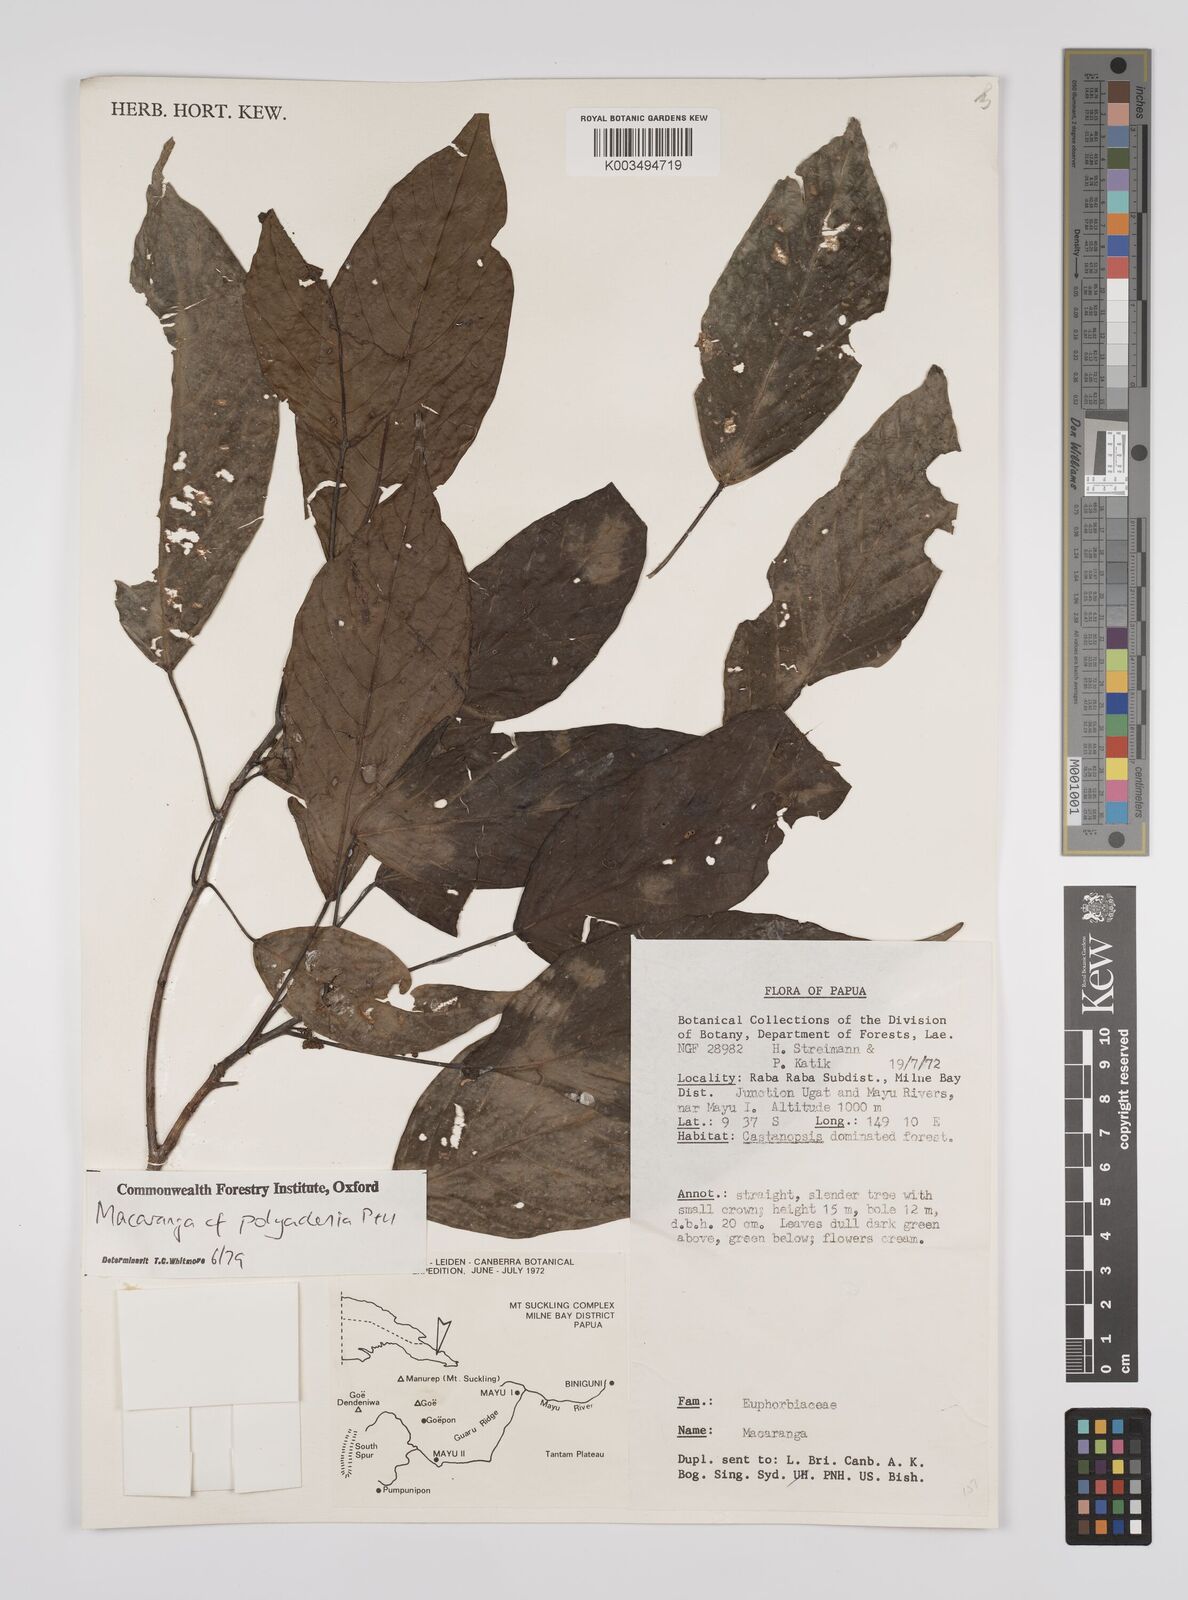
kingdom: Plantae
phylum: Tracheophyta
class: Magnoliopsida
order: Malpighiales
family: Euphorbiaceae
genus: Macaranga
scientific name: Macaranga polyadenia
